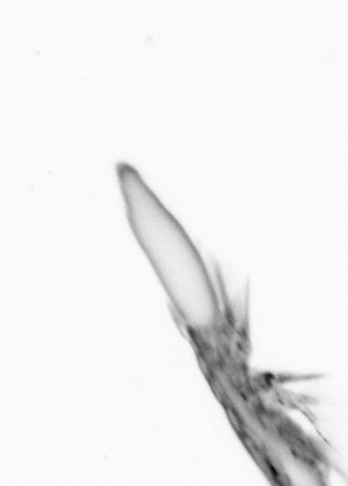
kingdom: Animalia
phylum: Arthropoda
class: Copepoda
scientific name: Copepoda
